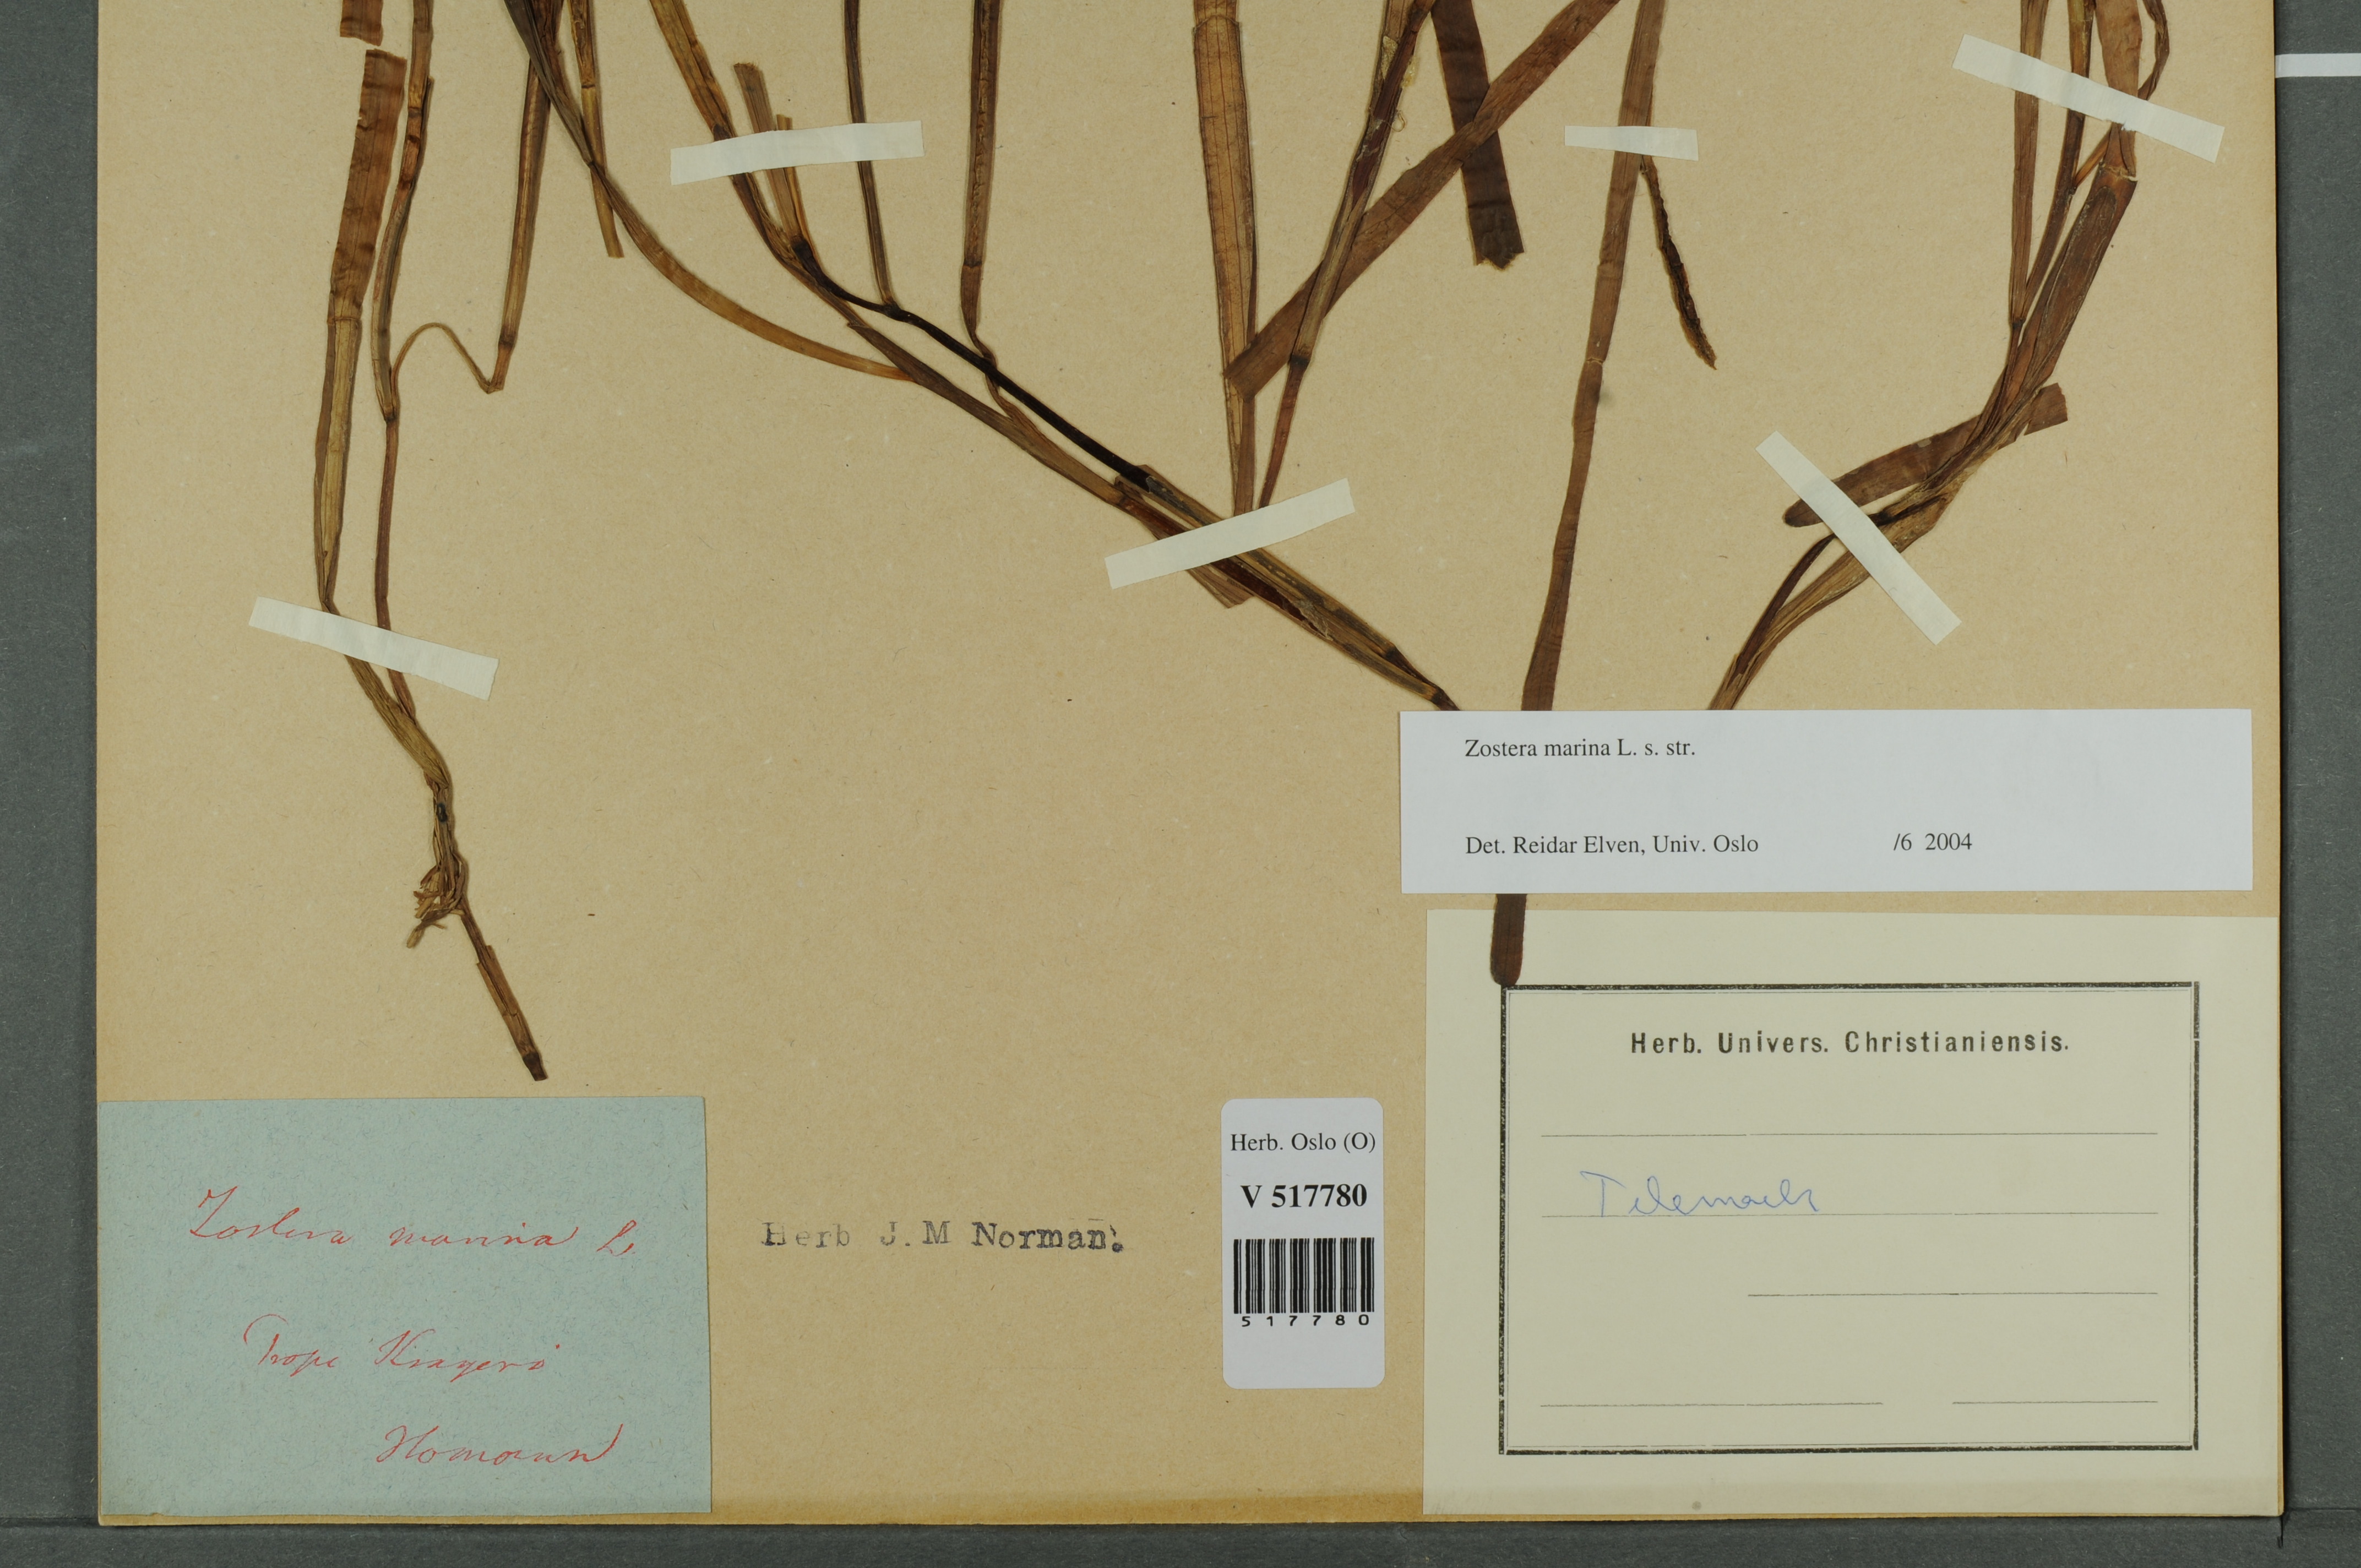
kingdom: Plantae
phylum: Tracheophyta
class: Liliopsida
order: Alismatales
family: Zosteraceae
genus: Zostera
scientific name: Zostera marina
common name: Eelgrass
